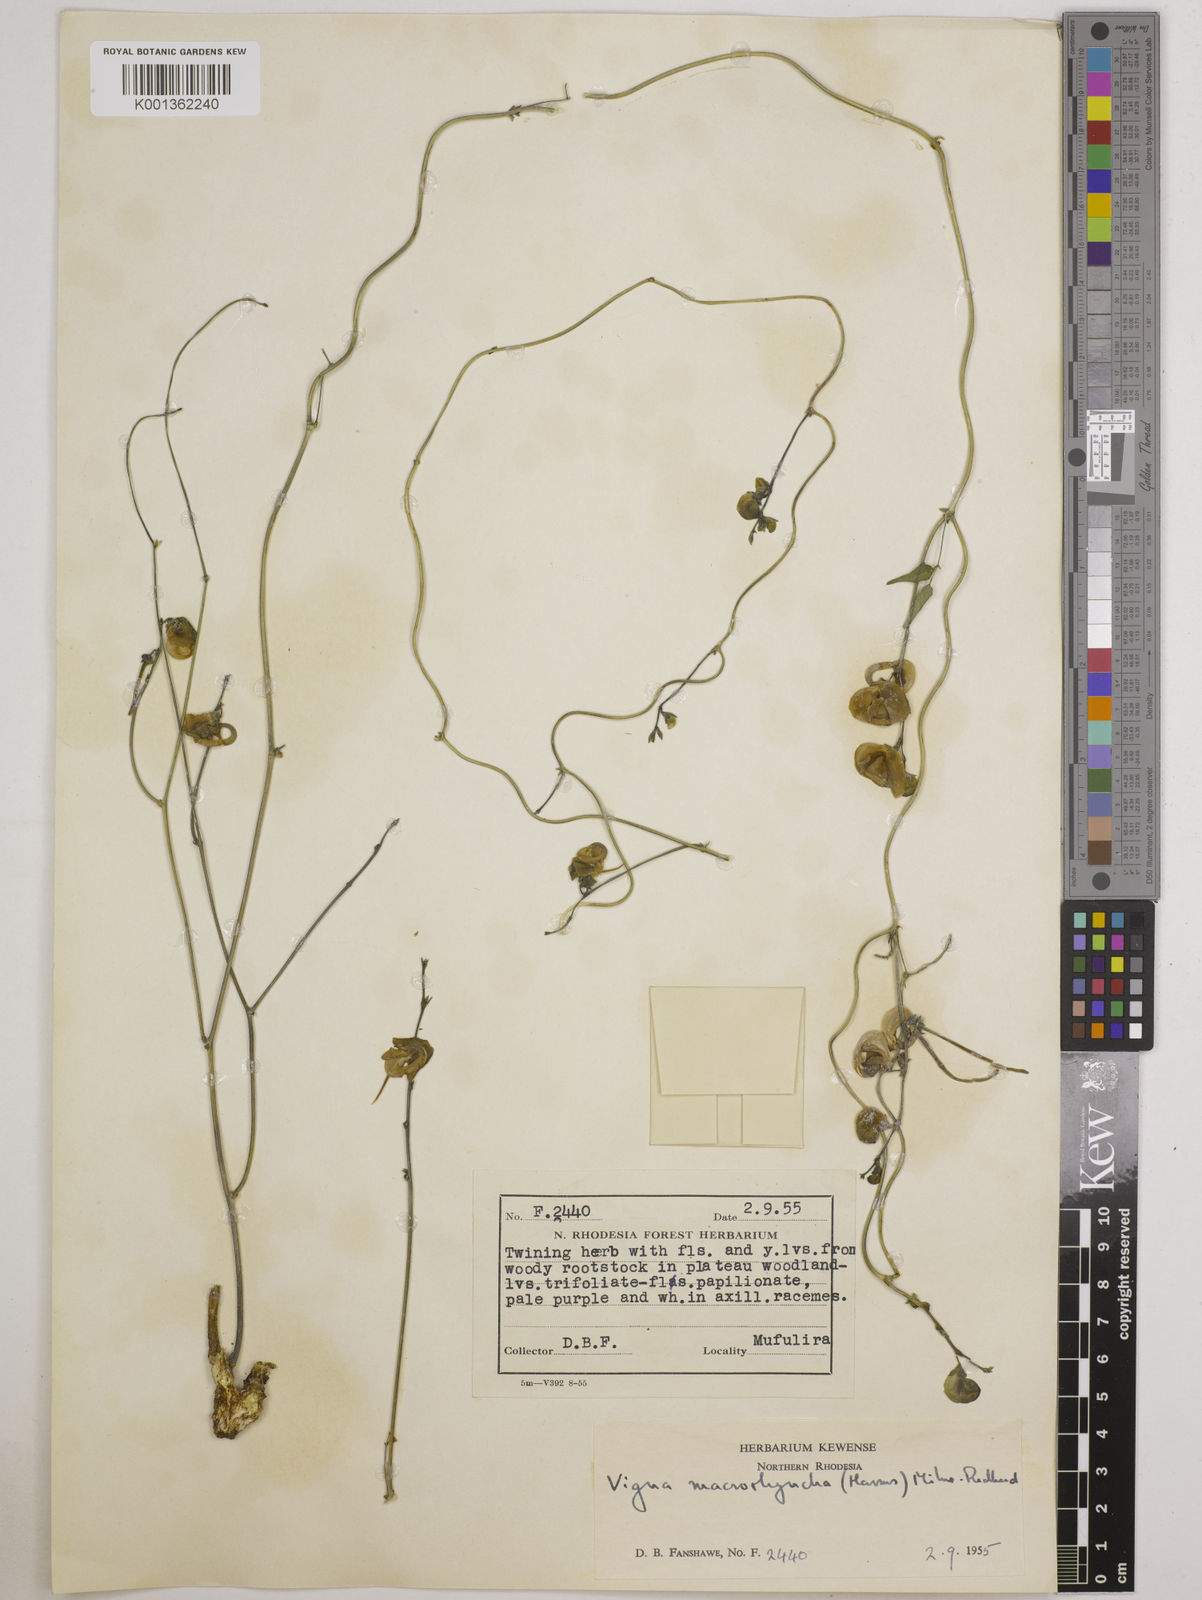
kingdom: Plantae
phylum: Tracheophyta
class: Magnoliopsida
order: Fabales
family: Fabaceae
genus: Wajira
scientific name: Wajira grahamiana
